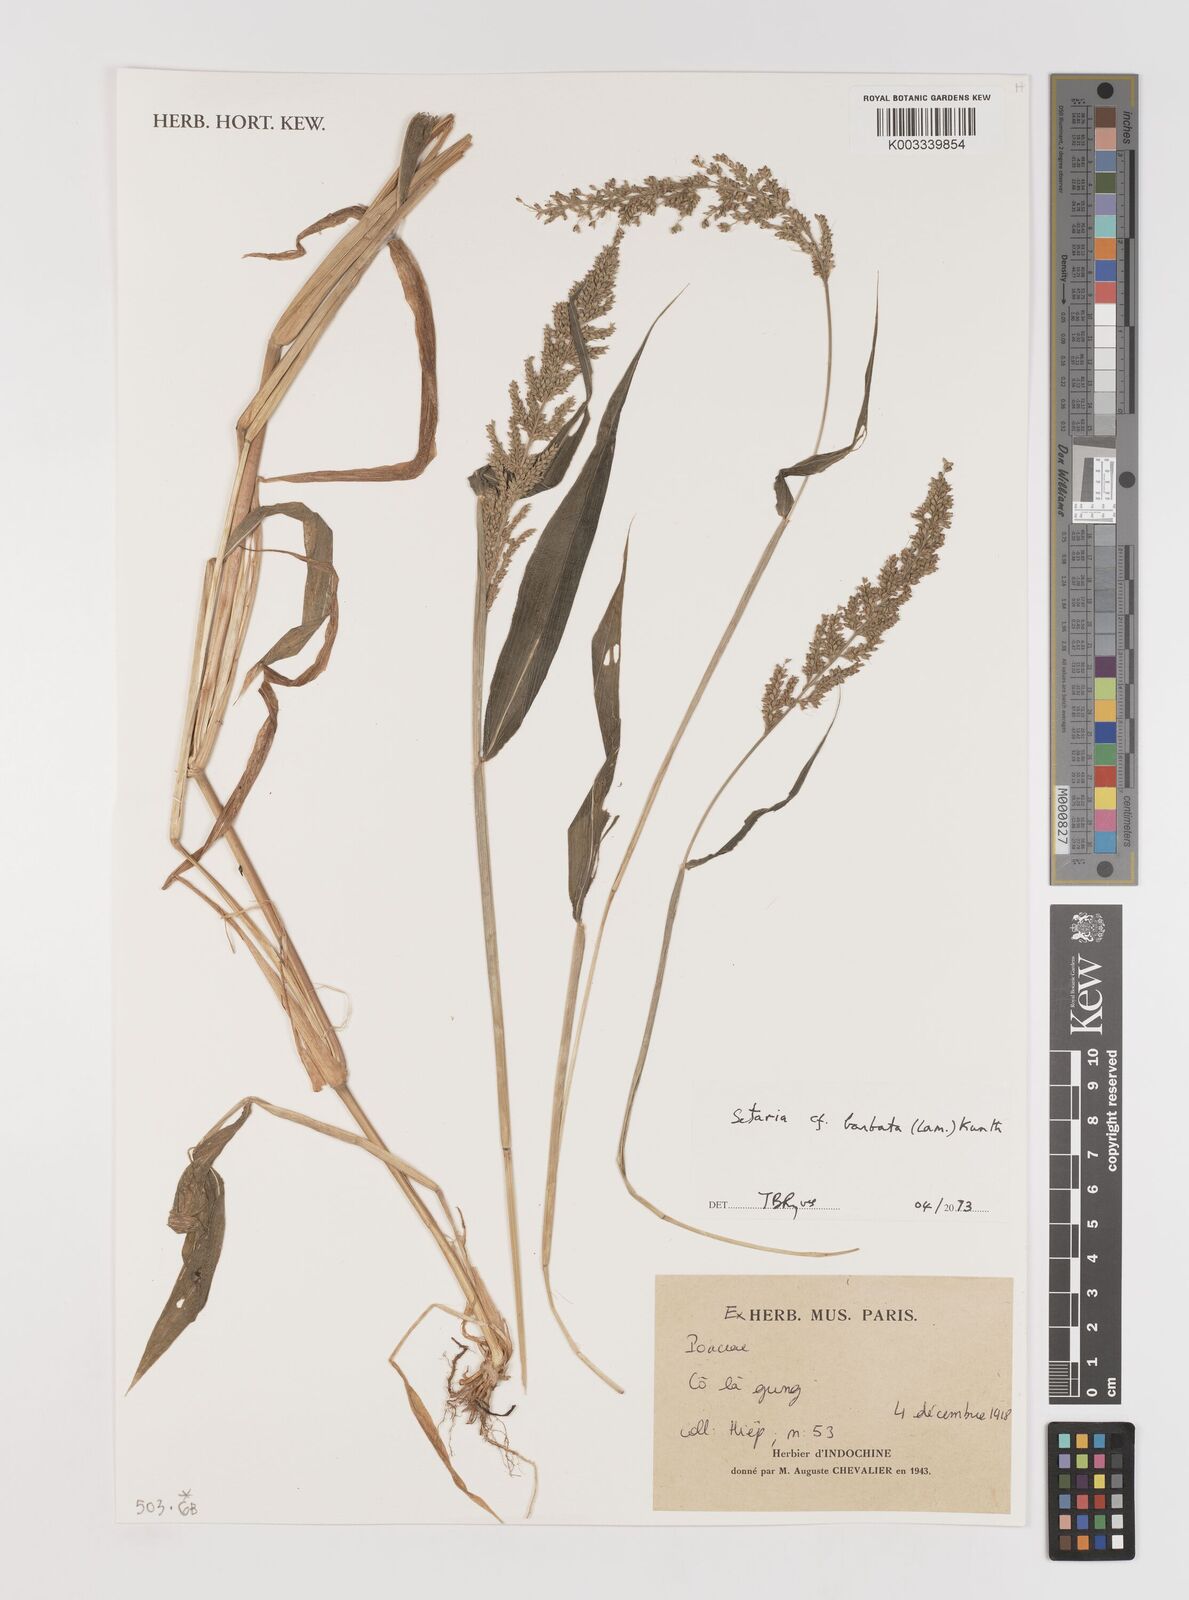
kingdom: Plantae
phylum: Tracheophyta
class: Liliopsida
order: Poales
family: Poaceae
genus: Setaria
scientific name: Setaria barbata
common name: East indian bristlegrass
